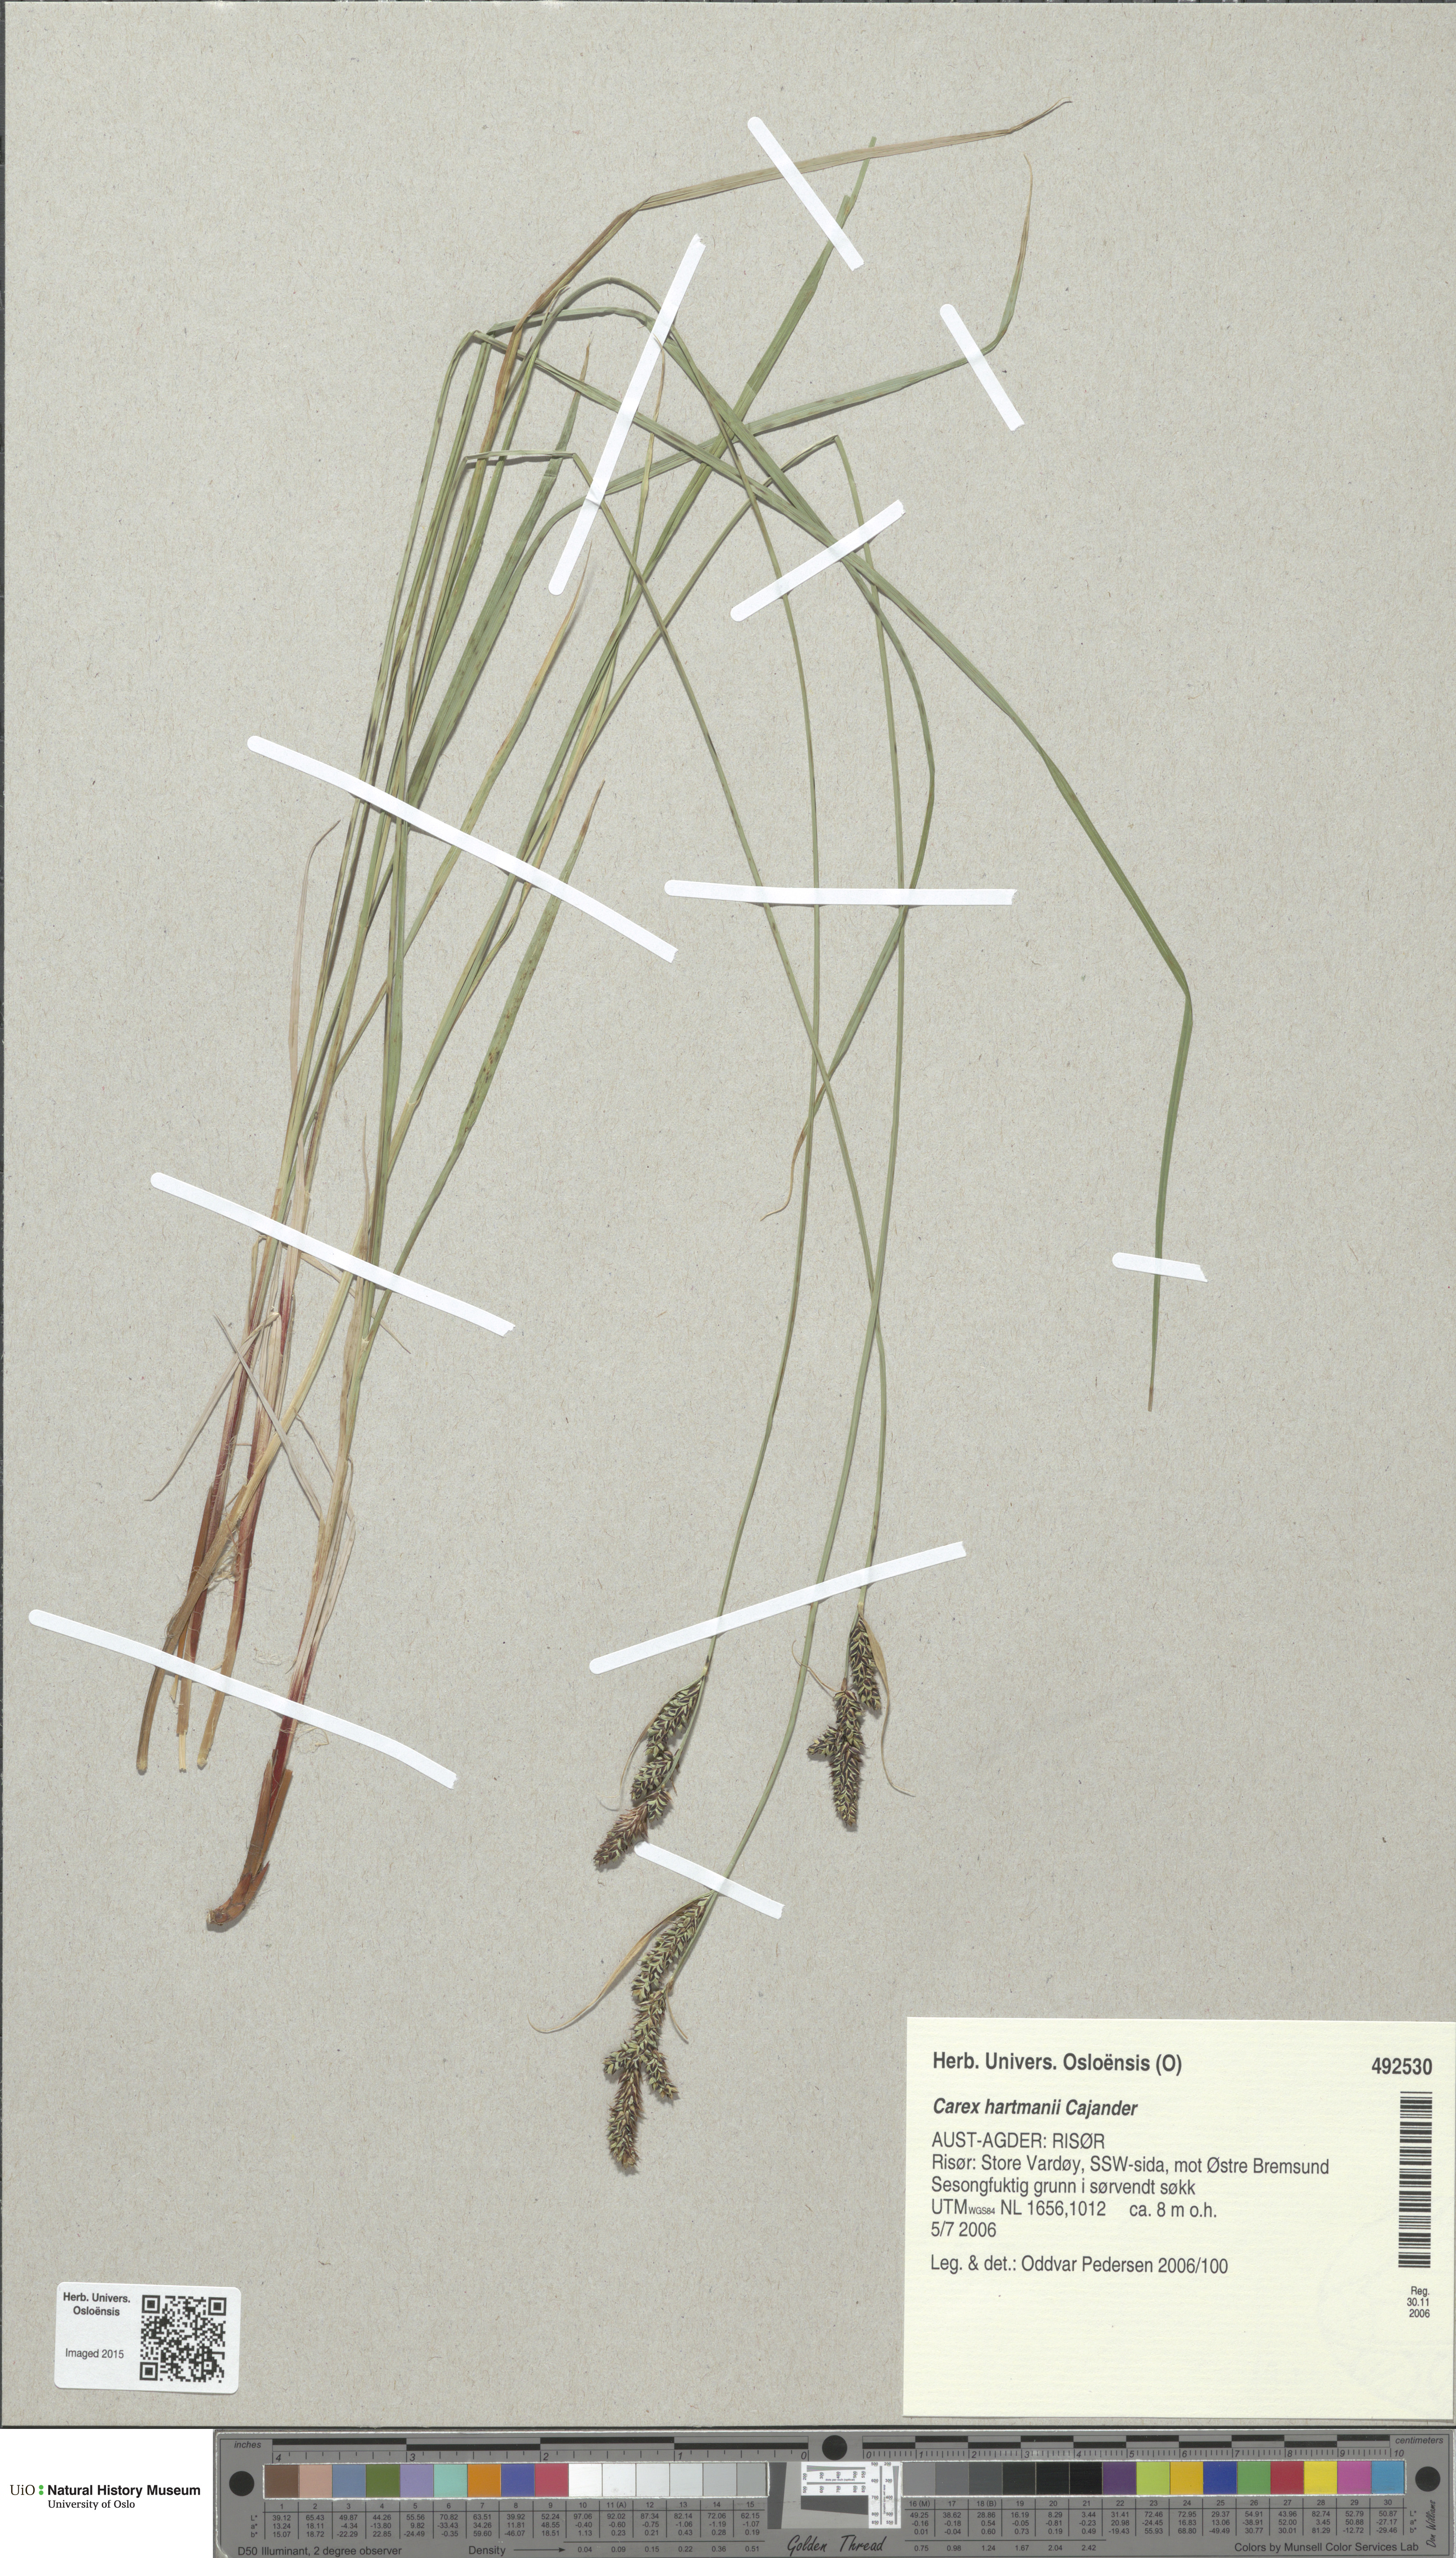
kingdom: Plantae
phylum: Tracheophyta
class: Liliopsida
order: Poales
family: Cyperaceae
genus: Carex
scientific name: Carex hartmaniorum
